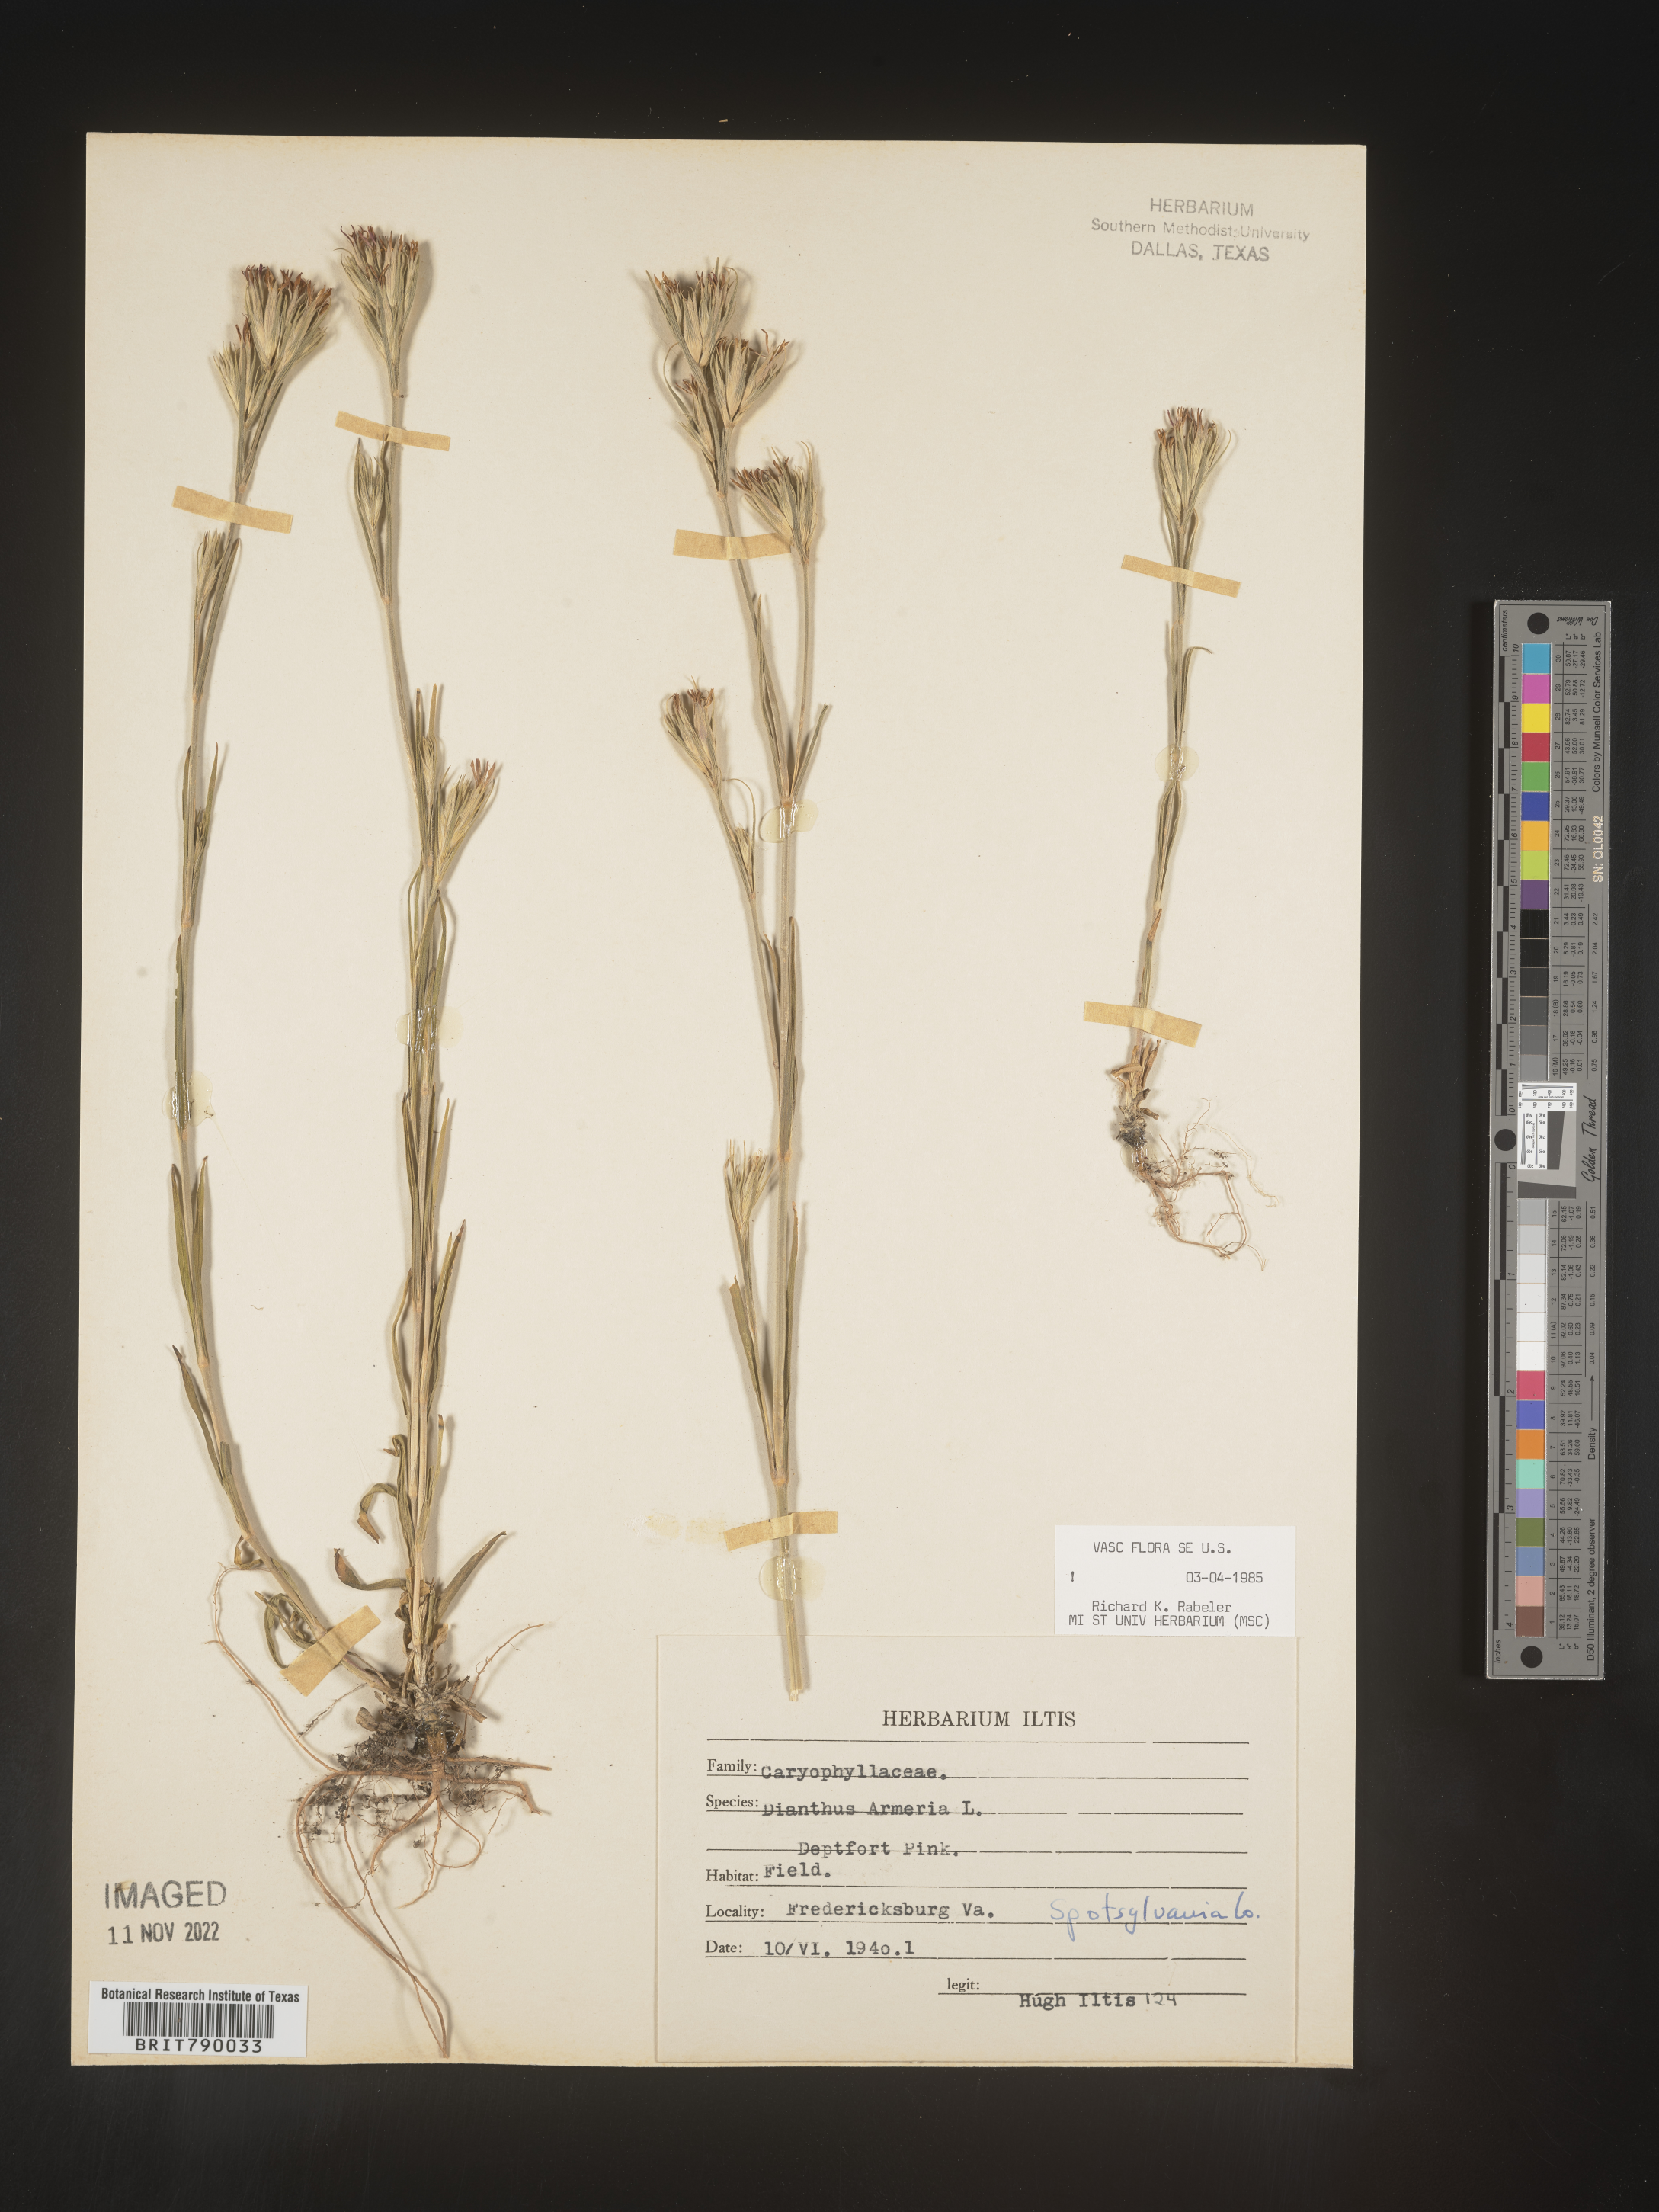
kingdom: Plantae
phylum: Tracheophyta
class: Magnoliopsida
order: Caryophyllales
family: Caryophyllaceae
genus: Dianthus
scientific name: Dianthus armeria
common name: Deptford pink
